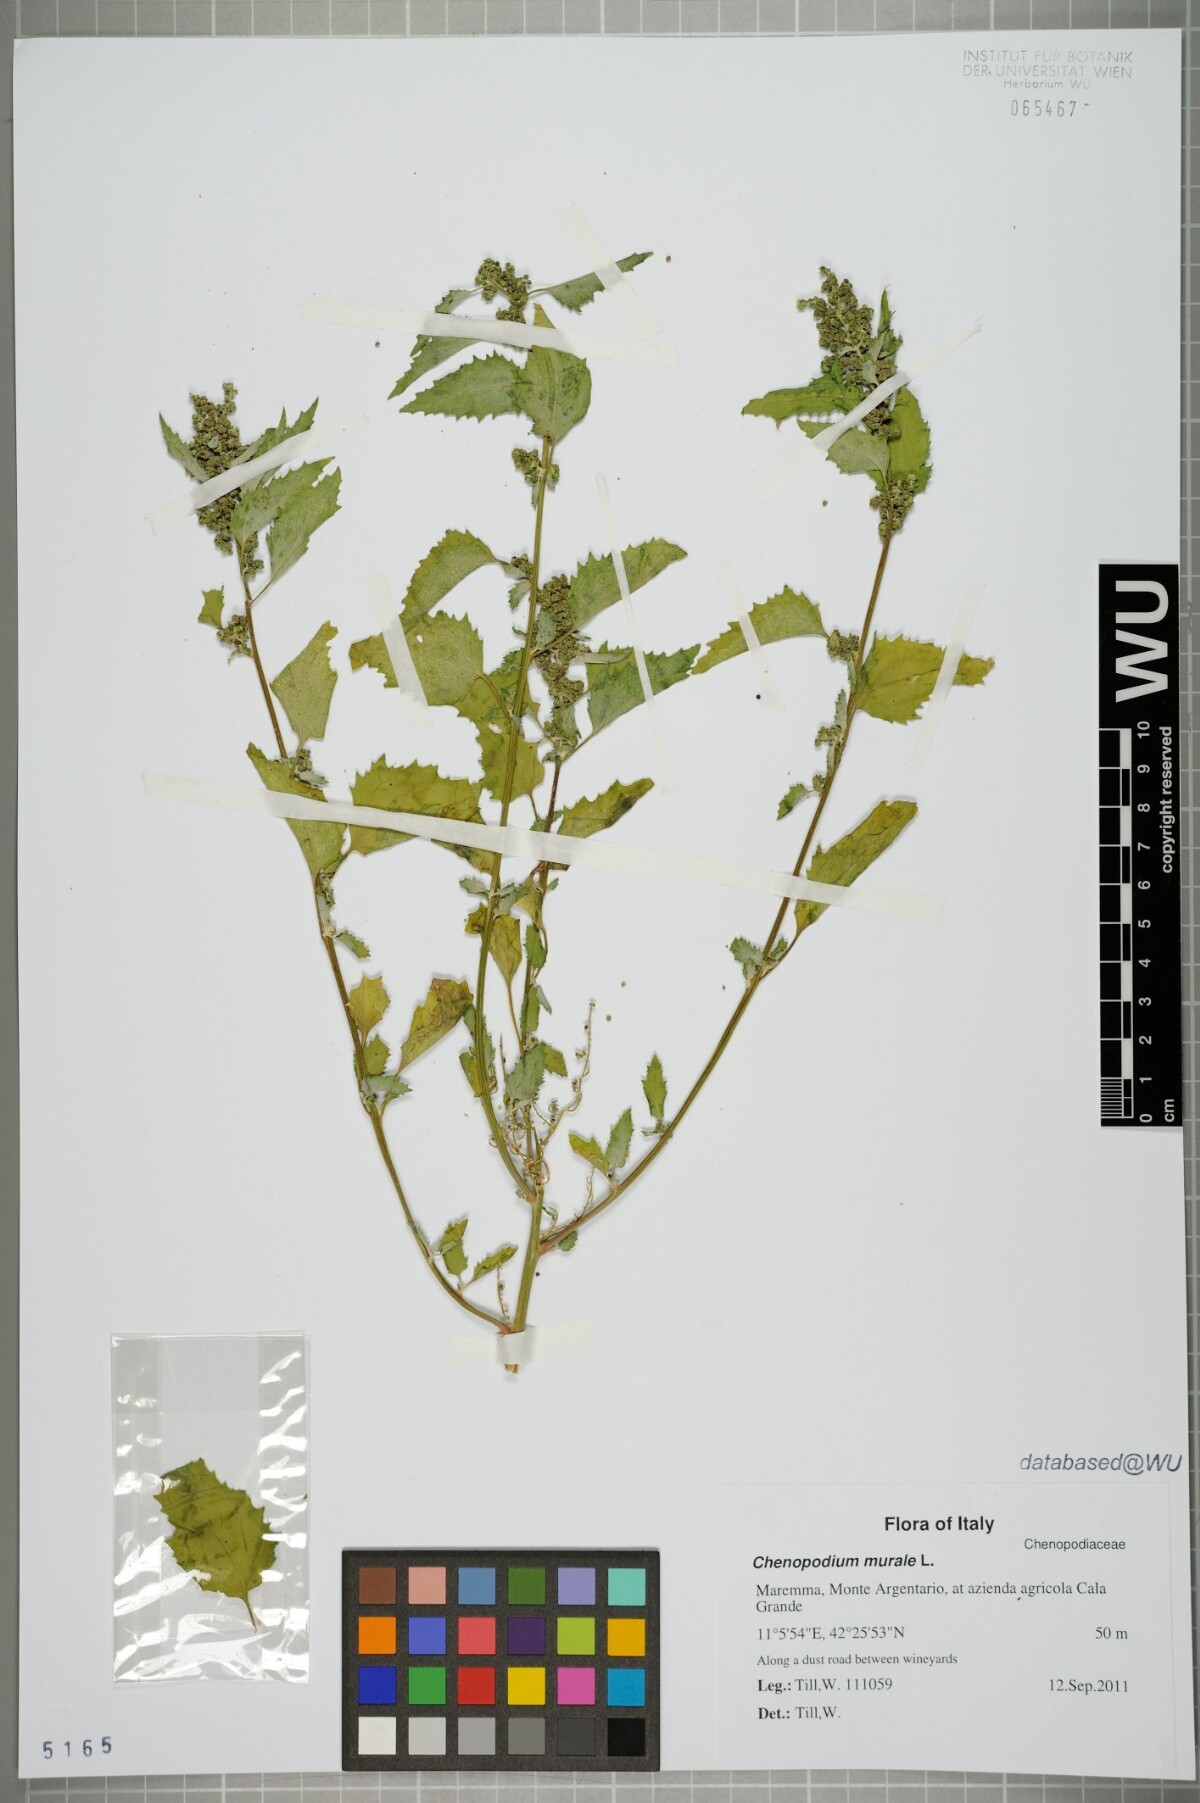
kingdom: Plantae
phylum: Tracheophyta
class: Magnoliopsida
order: Caryophyllales
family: Amaranthaceae
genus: Chenopodiastrum
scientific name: Chenopodiastrum murale
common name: Sowbane
